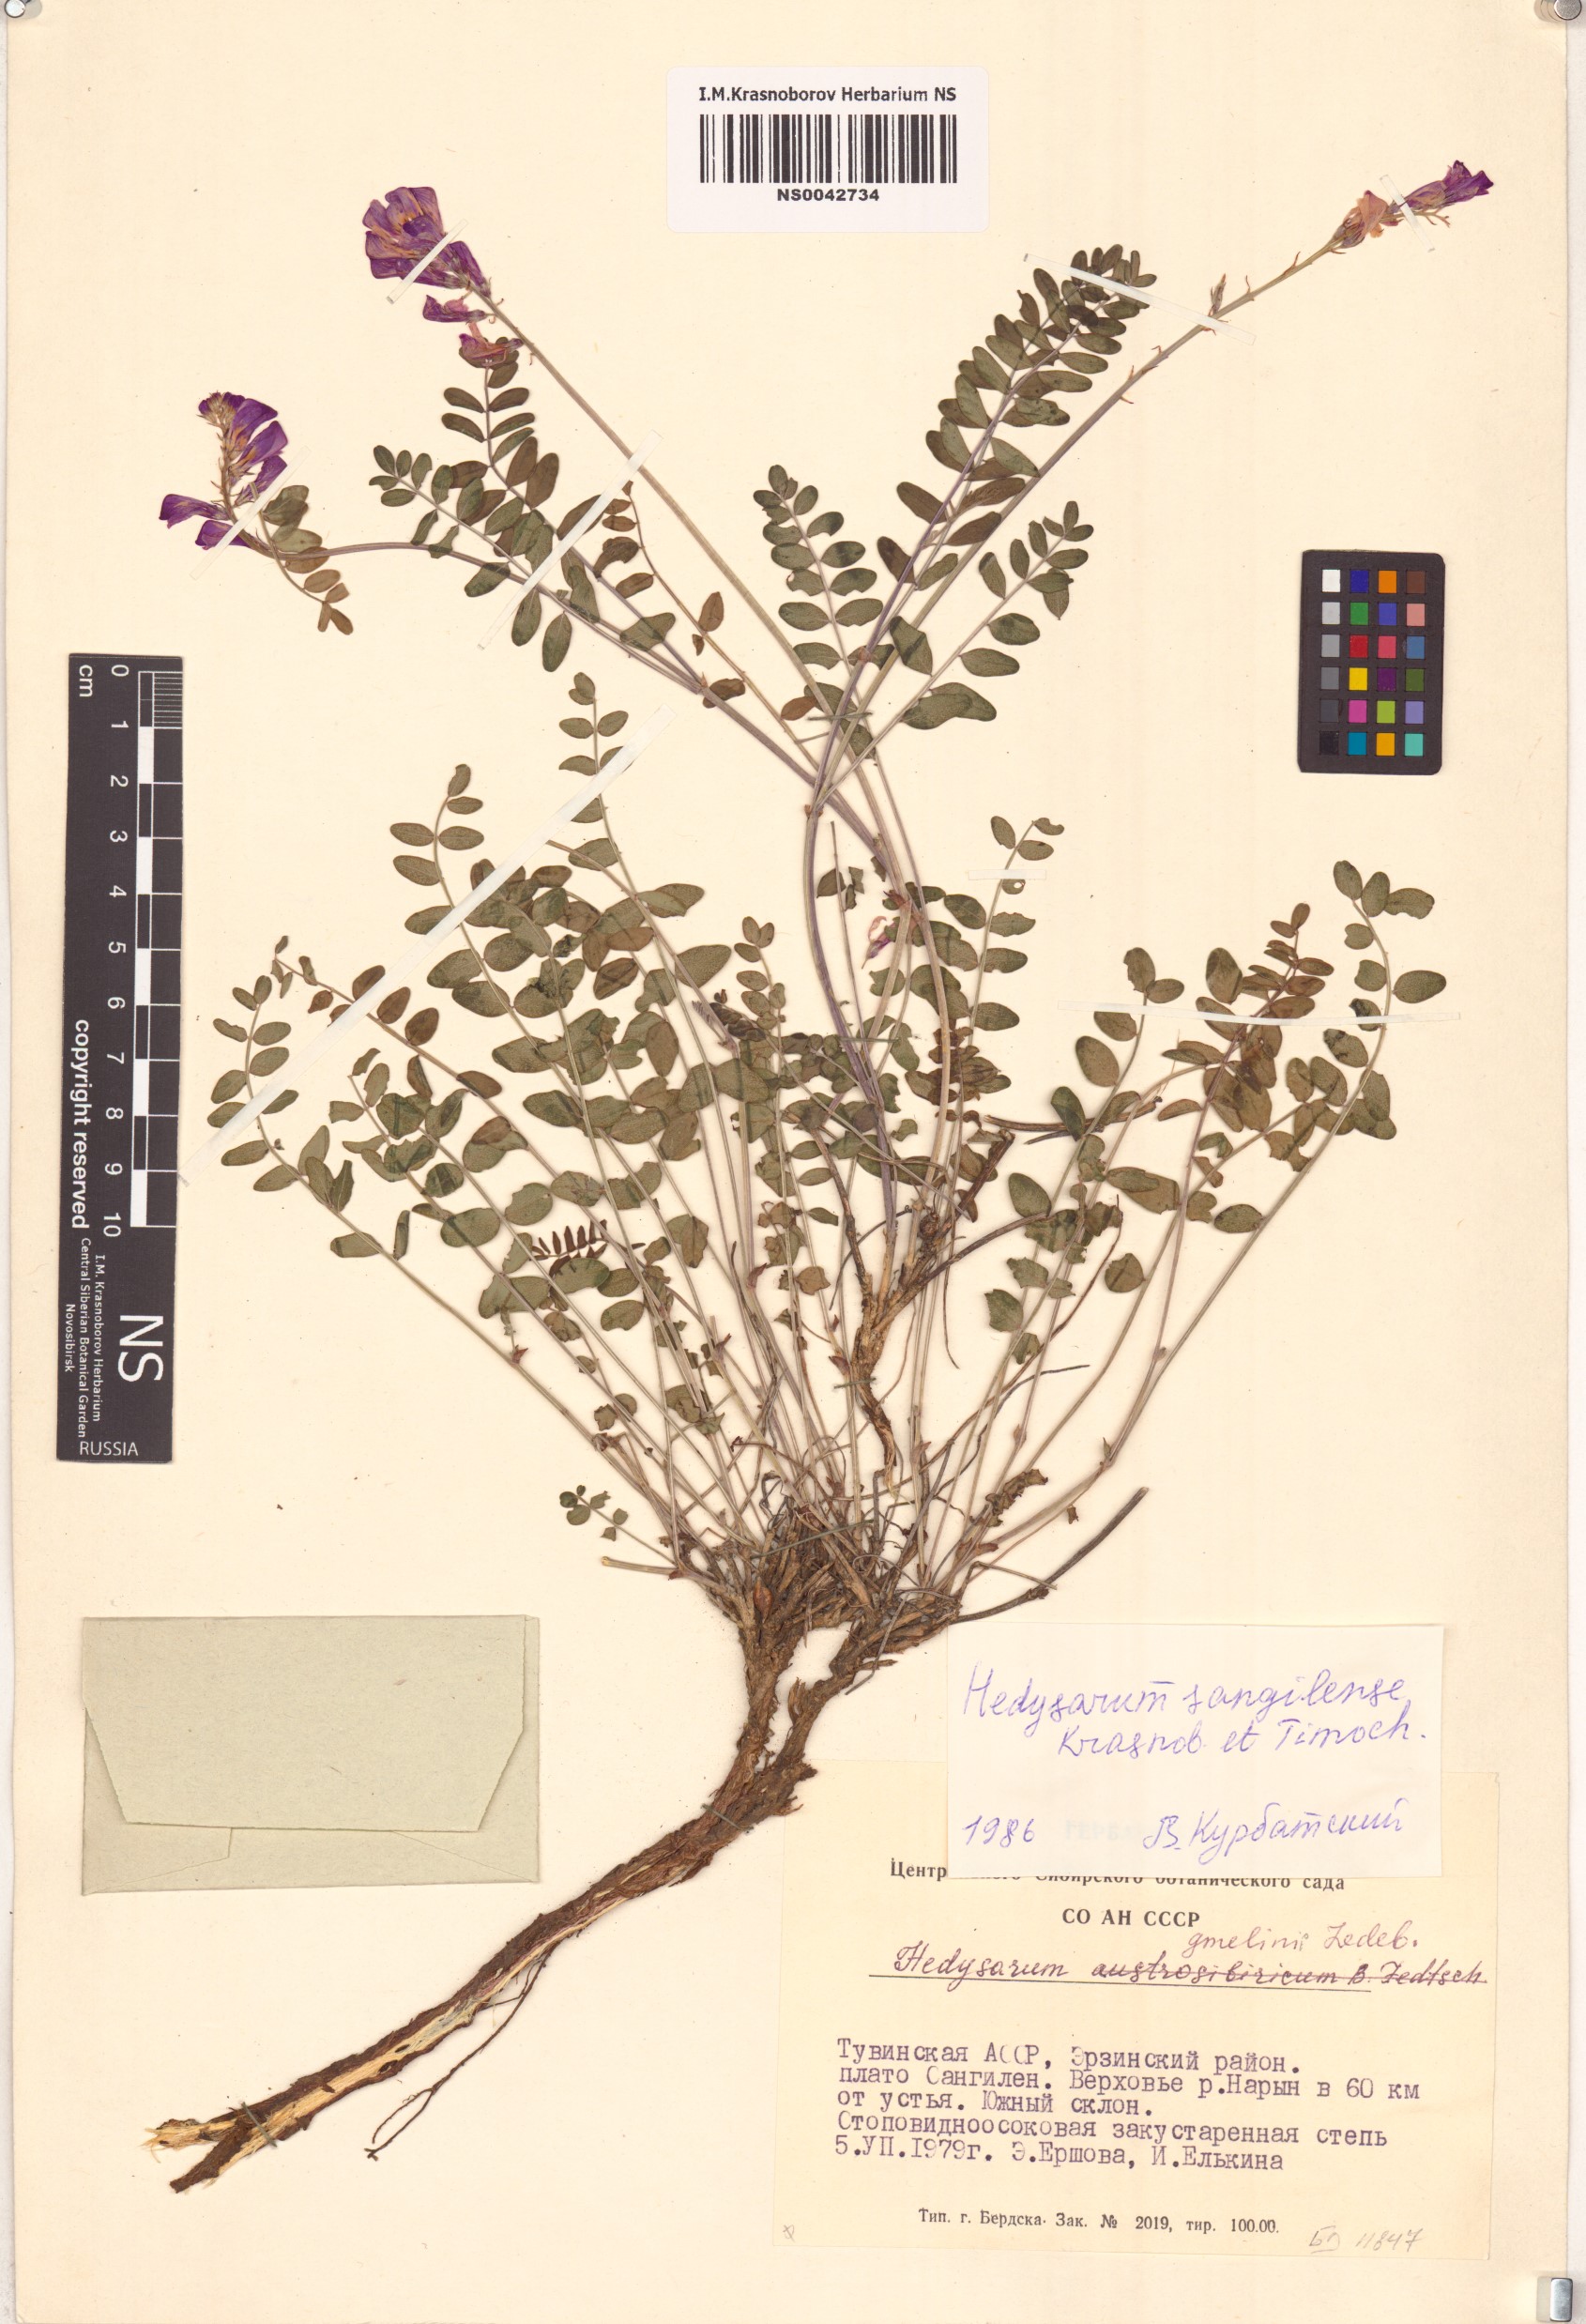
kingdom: Plantae
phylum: Tracheophyta
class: Magnoliopsida
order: Fabales
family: Fabaceae
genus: Hedysarum
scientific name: Hedysarum sangilense
